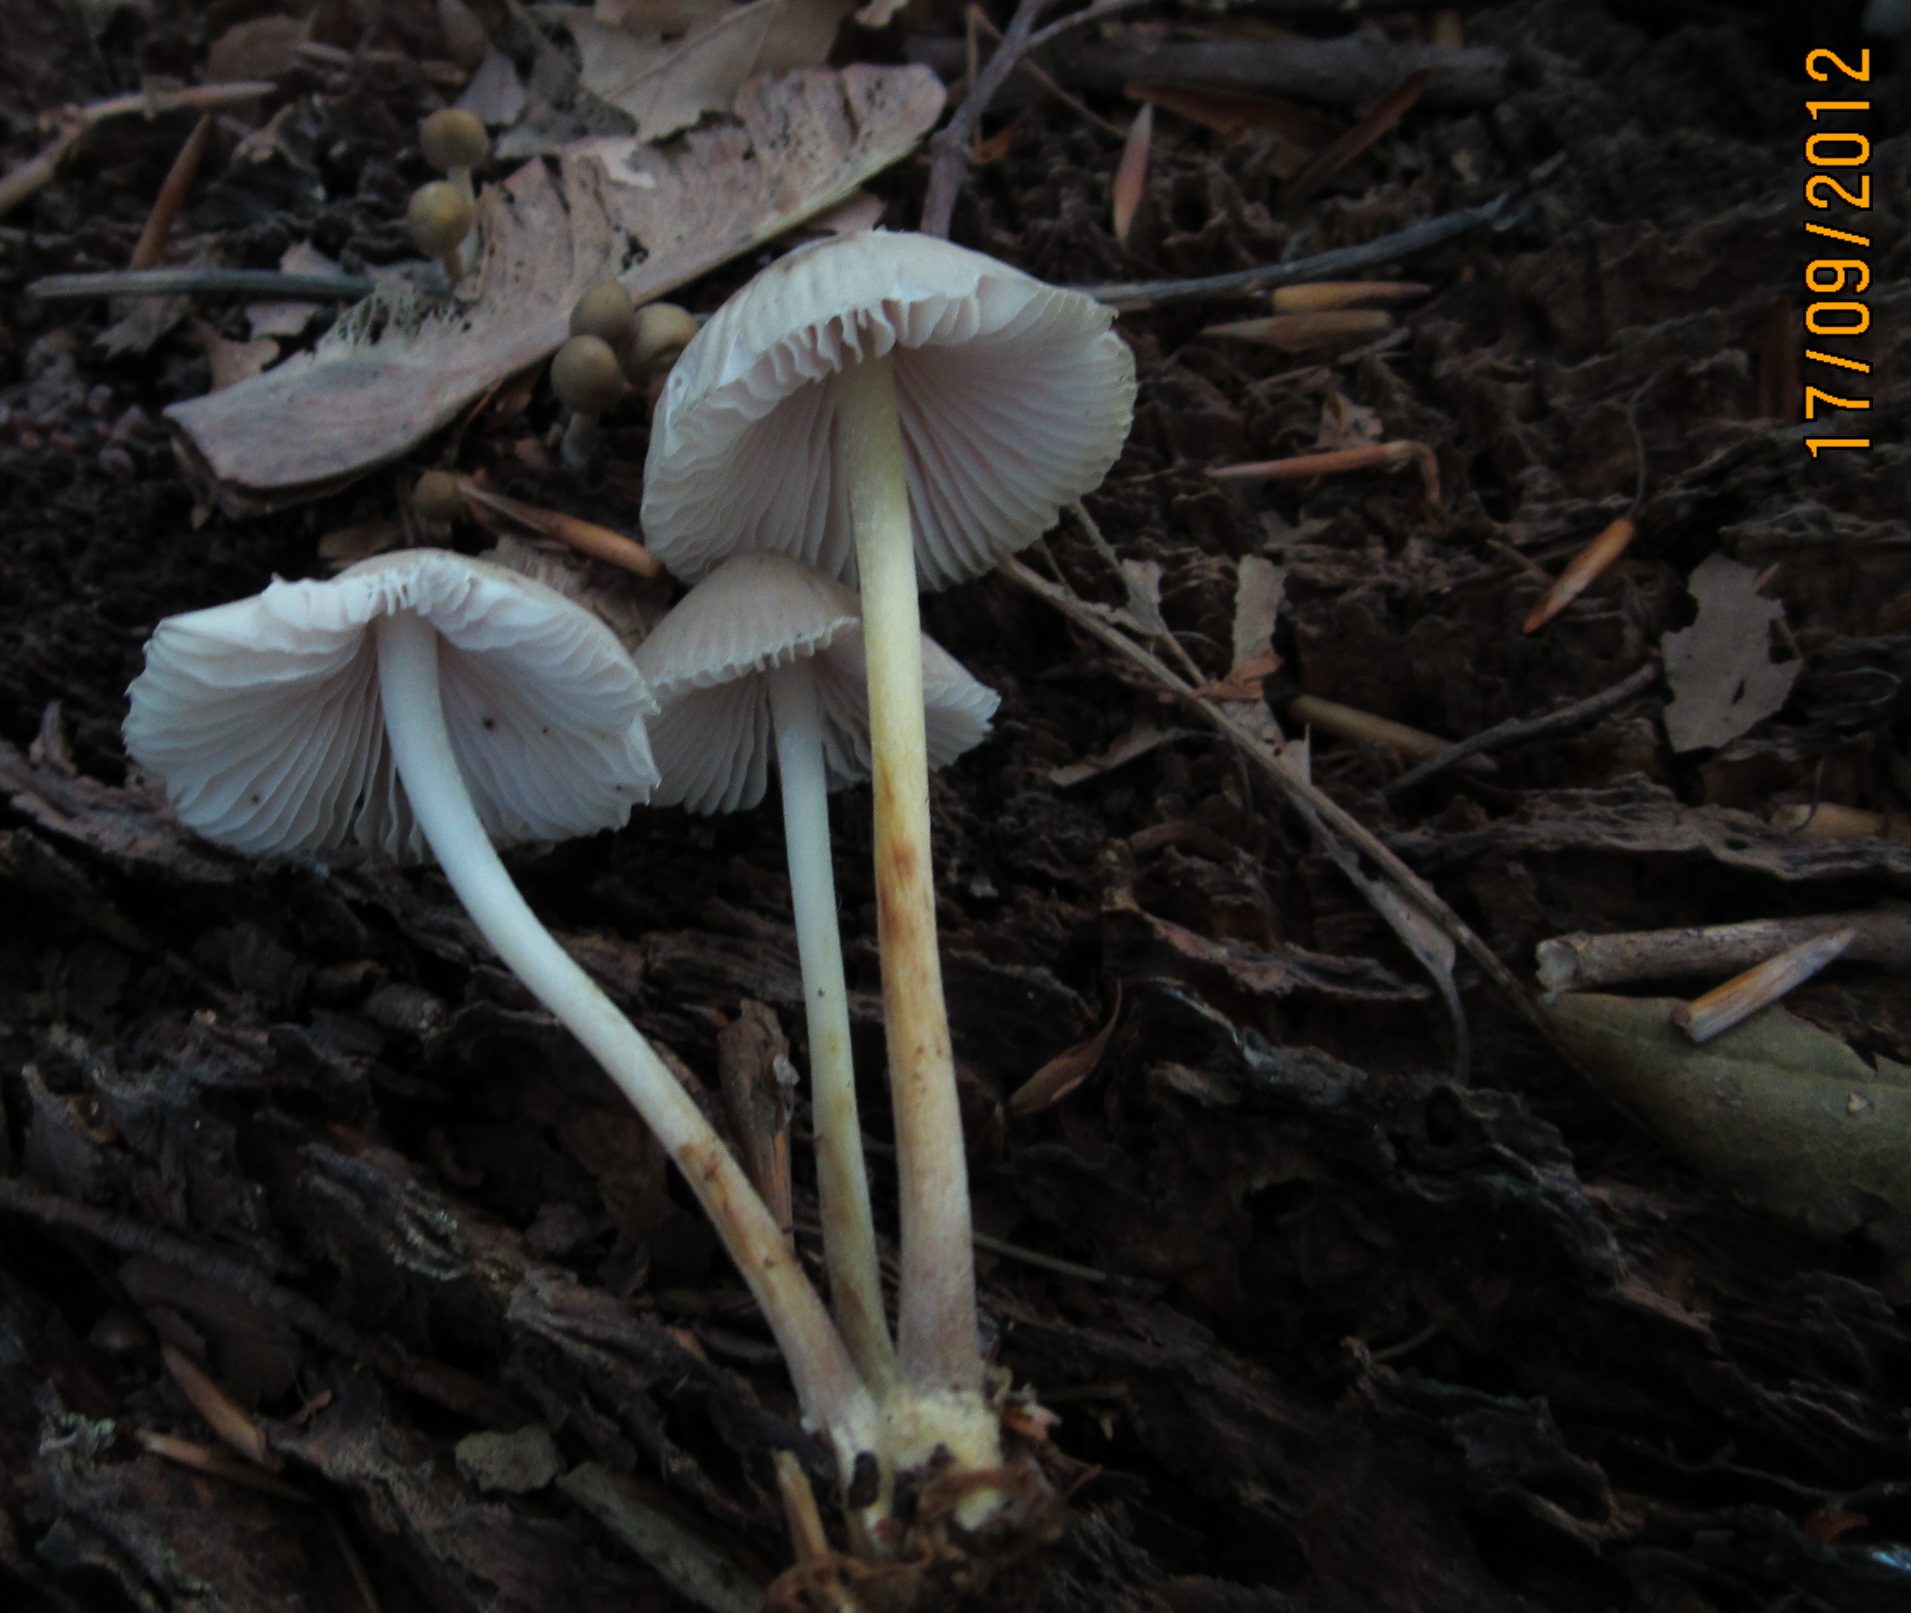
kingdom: Fungi
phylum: Basidiomycota
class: Agaricomycetes
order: Agaricales
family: Mycenaceae
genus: Mycena
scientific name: Mycena inclinata
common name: nikkende huesvamp
